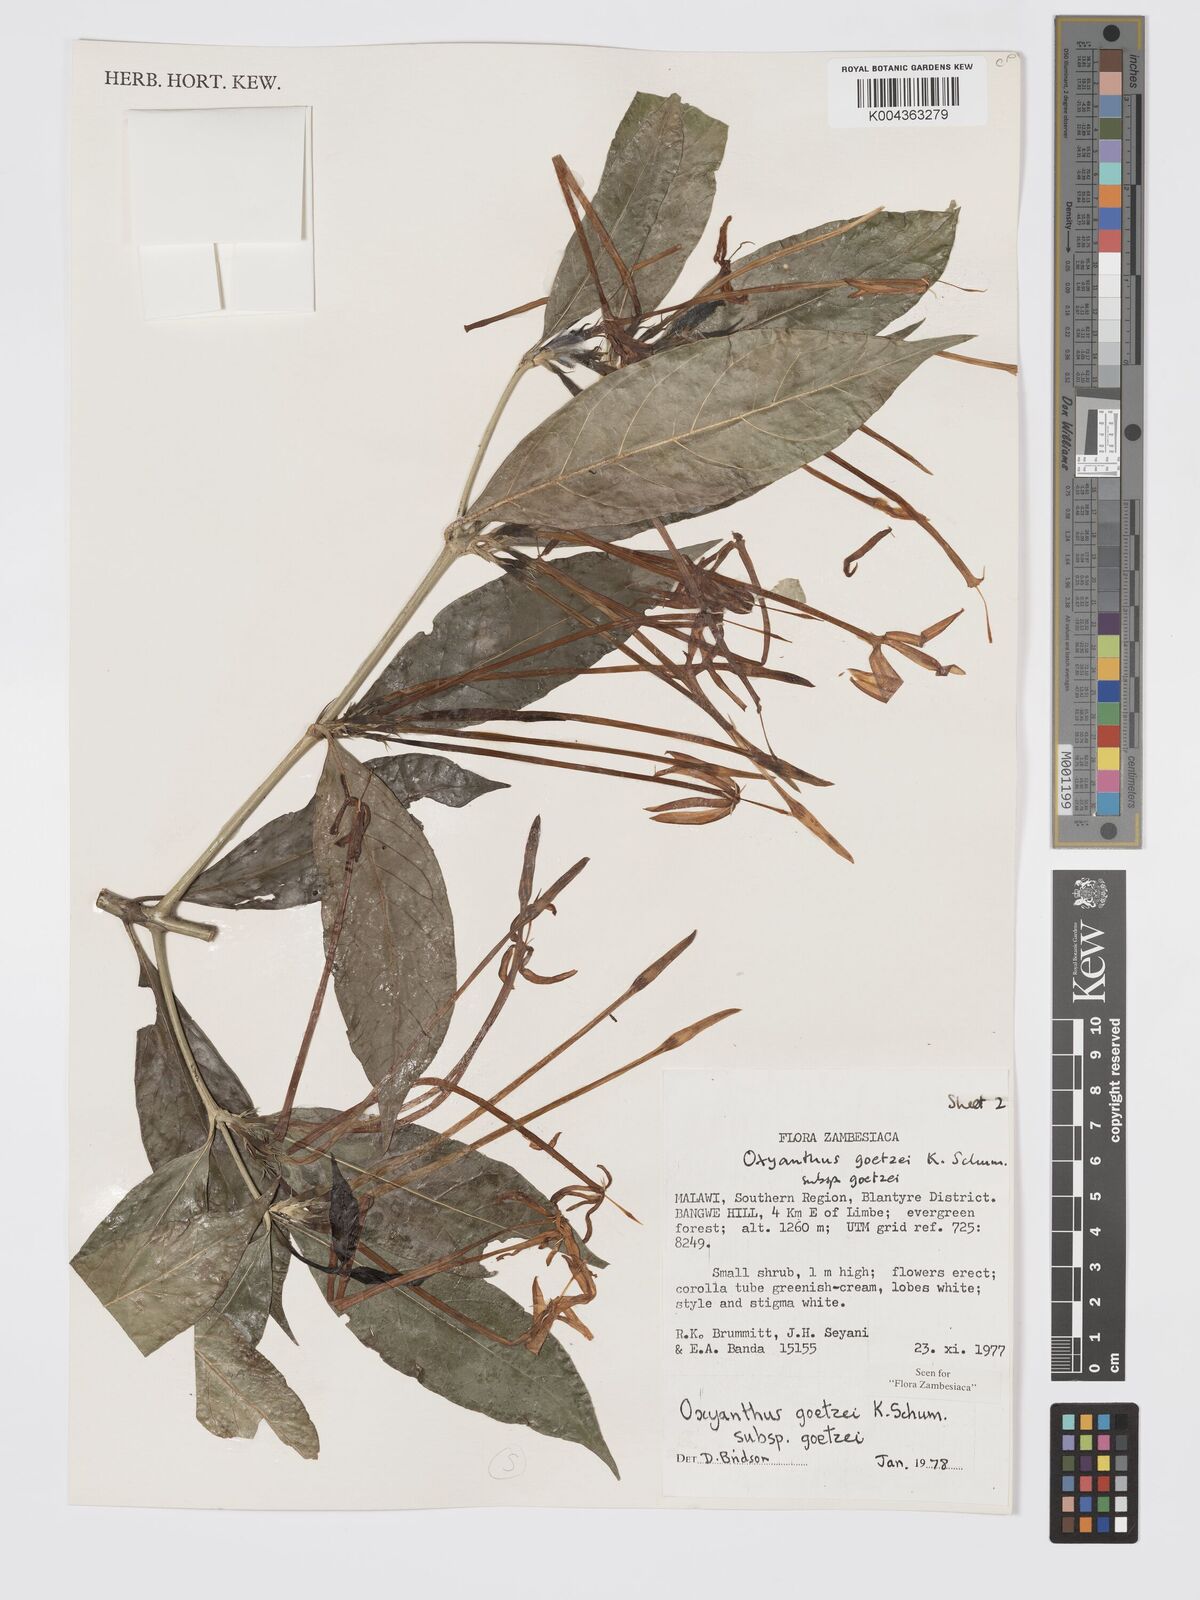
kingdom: Plantae
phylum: Tracheophyta
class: Magnoliopsida
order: Gentianales
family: Rubiaceae
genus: Oxyanthus
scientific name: Oxyanthus goetzei
